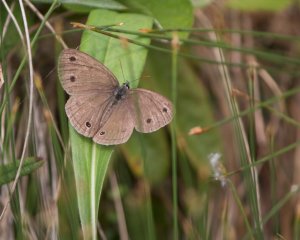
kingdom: Animalia
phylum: Arthropoda
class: Insecta
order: Lepidoptera
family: Nymphalidae
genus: Euptychia
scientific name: Euptychia cymela
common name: Little Wood Satyr
